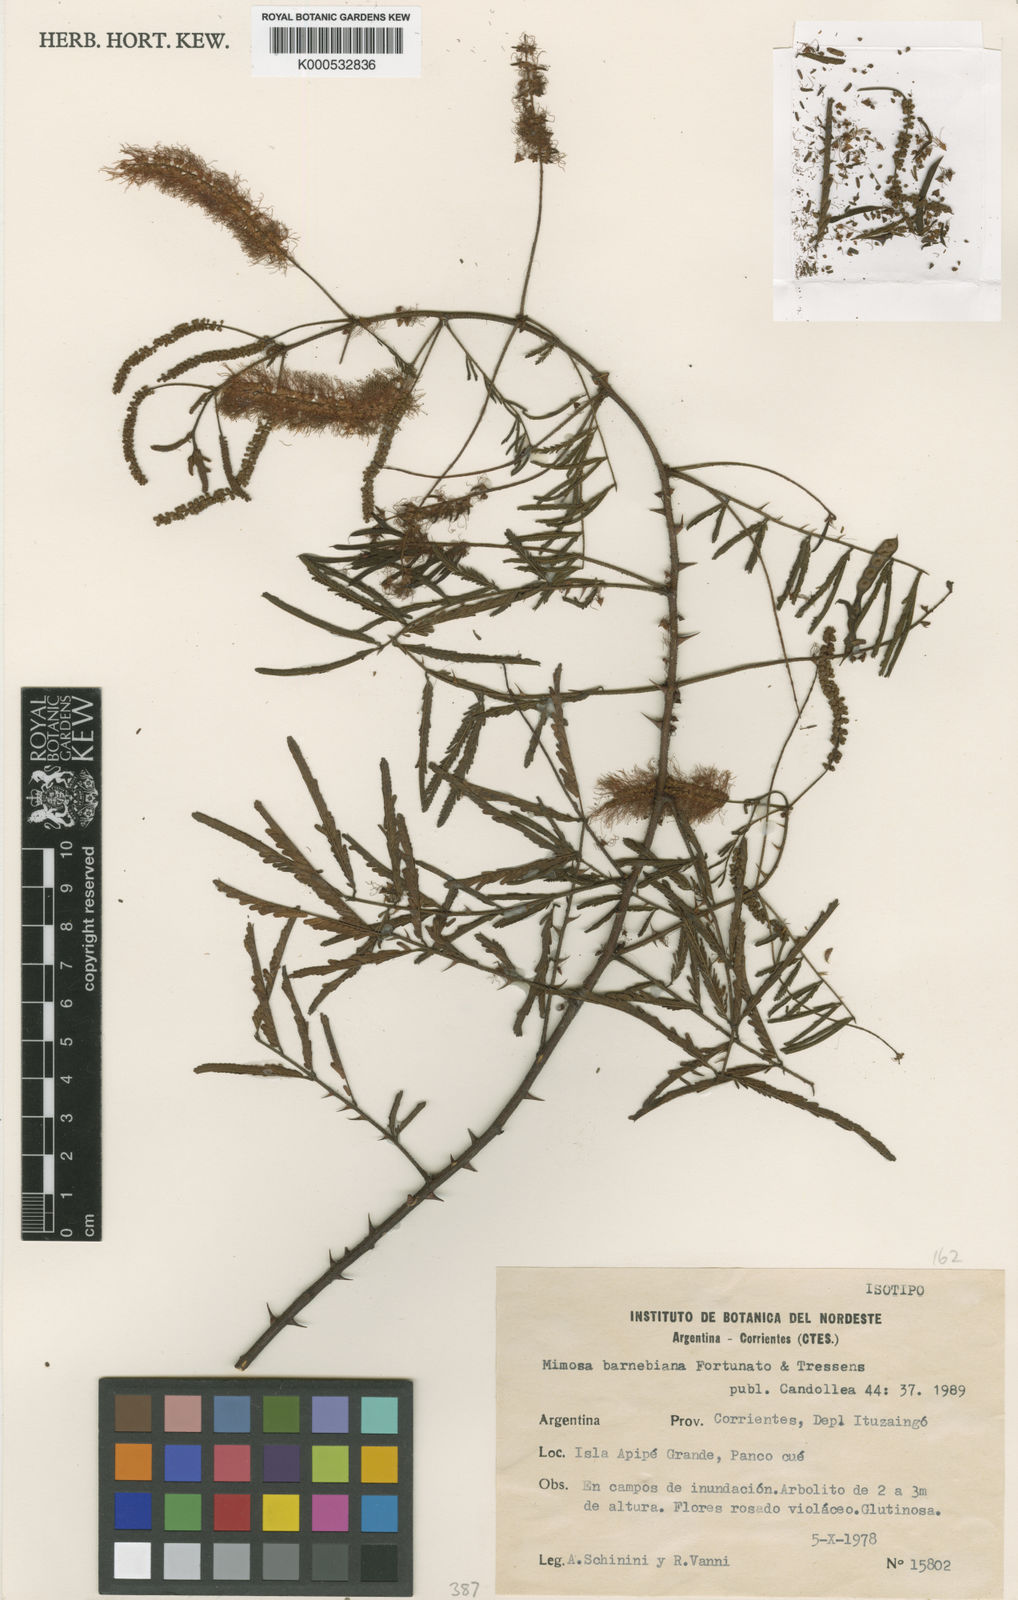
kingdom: Plantae
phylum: Tracheophyta
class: Magnoliopsida
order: Fabales
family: Fabaceae
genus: Mimosa
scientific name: Mimosa barnebiana
